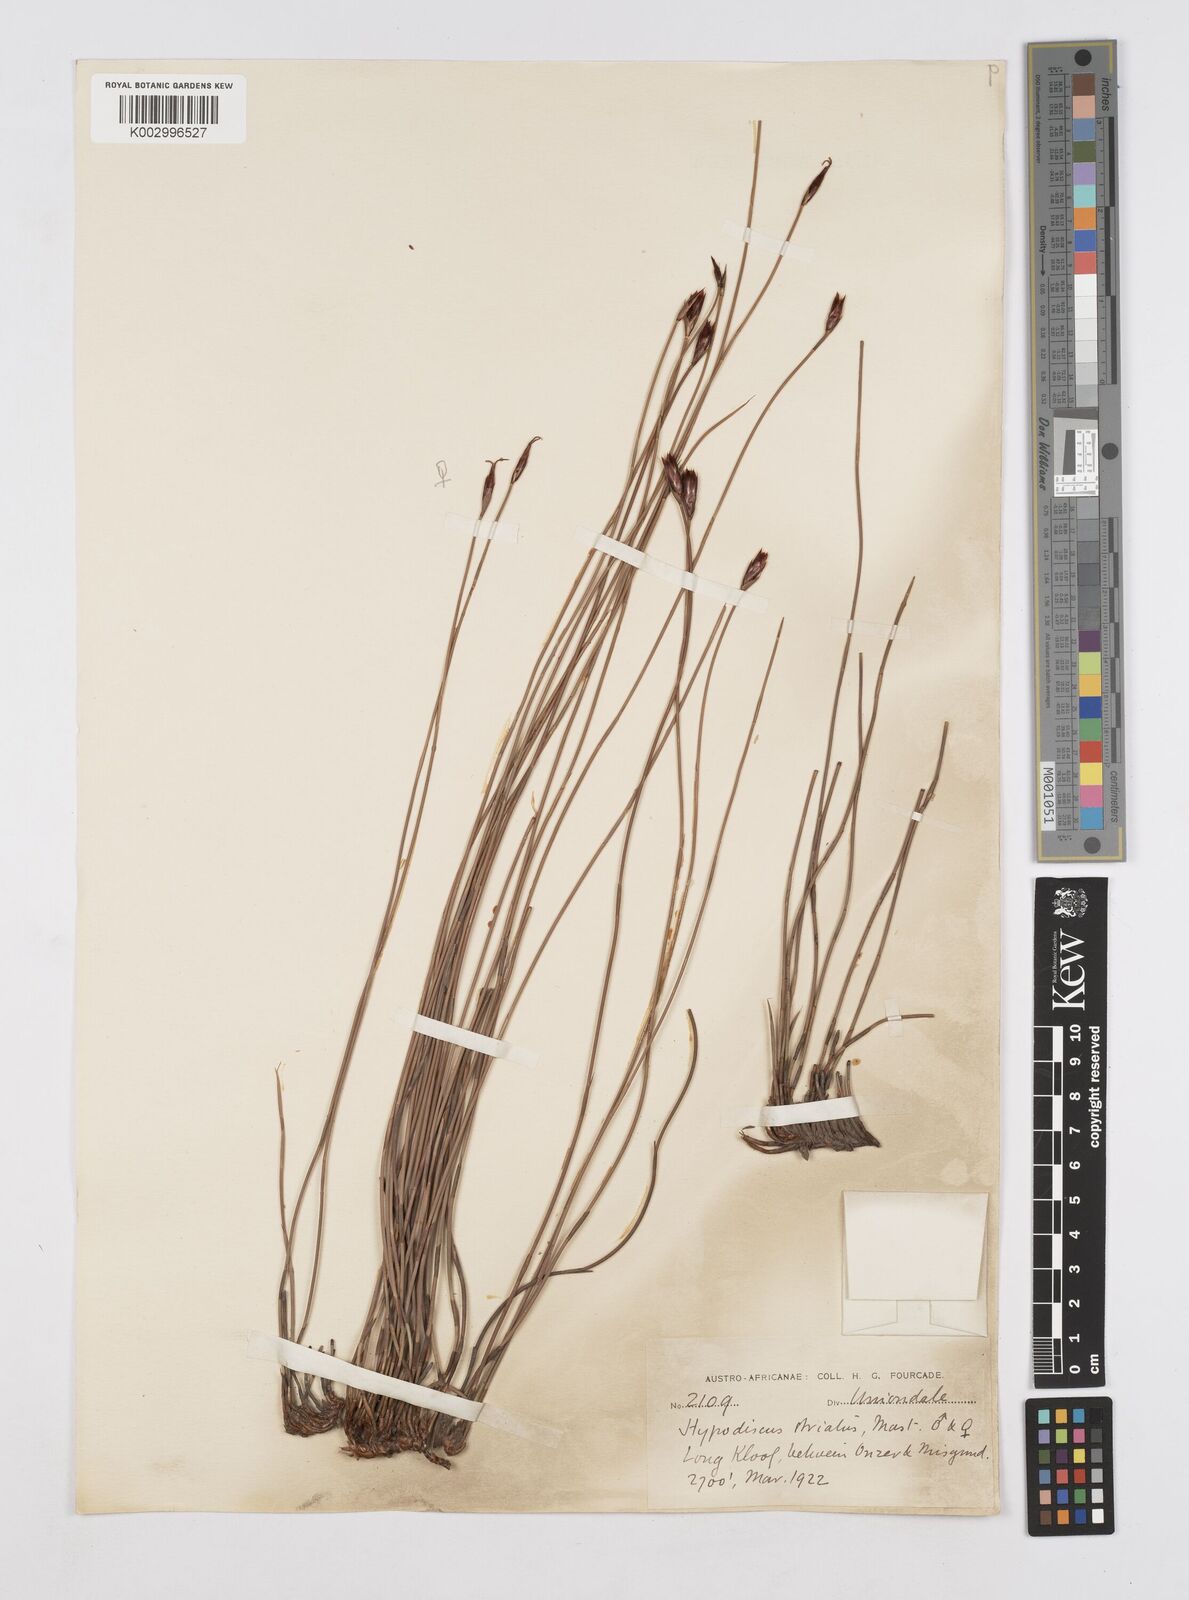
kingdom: Plantae
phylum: Tracheophyta
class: Liliopsida
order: Poales
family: Restionaceae
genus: Hypodiscus
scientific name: Hypodiscus striatus
